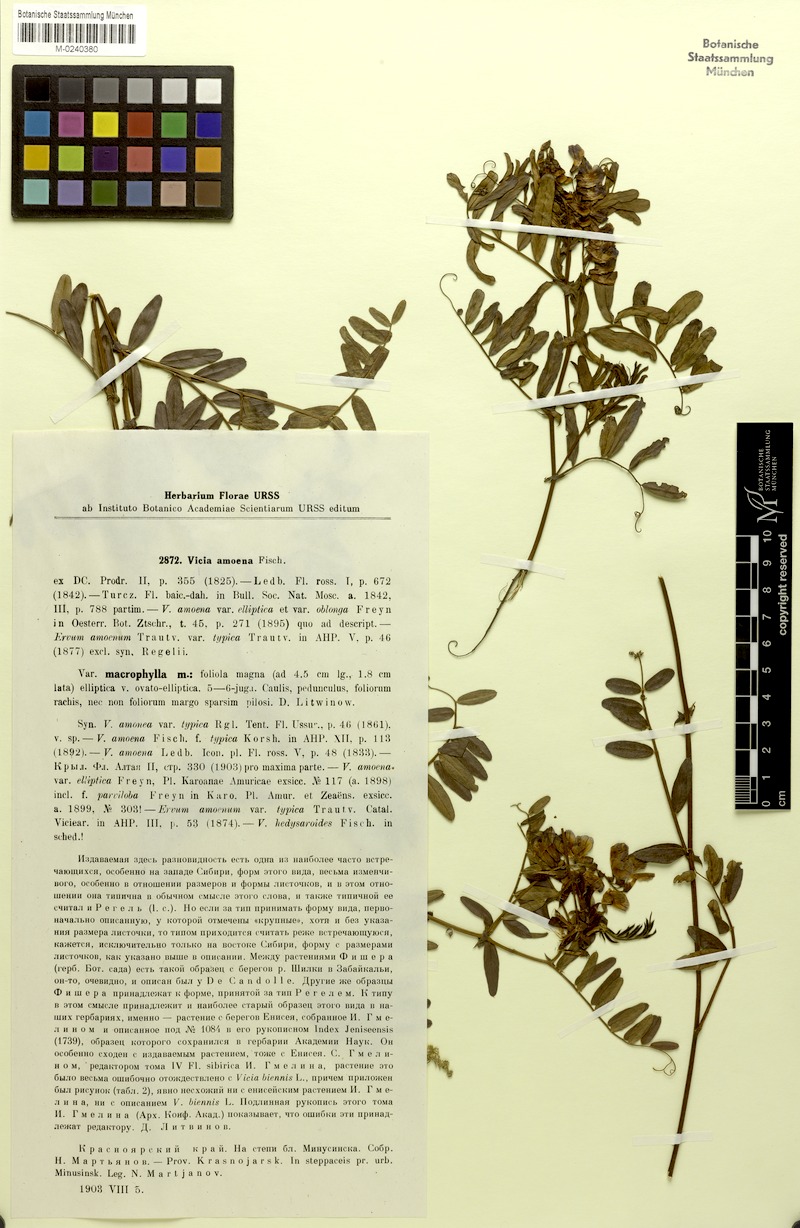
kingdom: Plantae
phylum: Tracheophyta
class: Magnoliopsida
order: Fabales
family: Fabaceae
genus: Vicia
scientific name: Vicia amoena
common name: Cheder ebs
